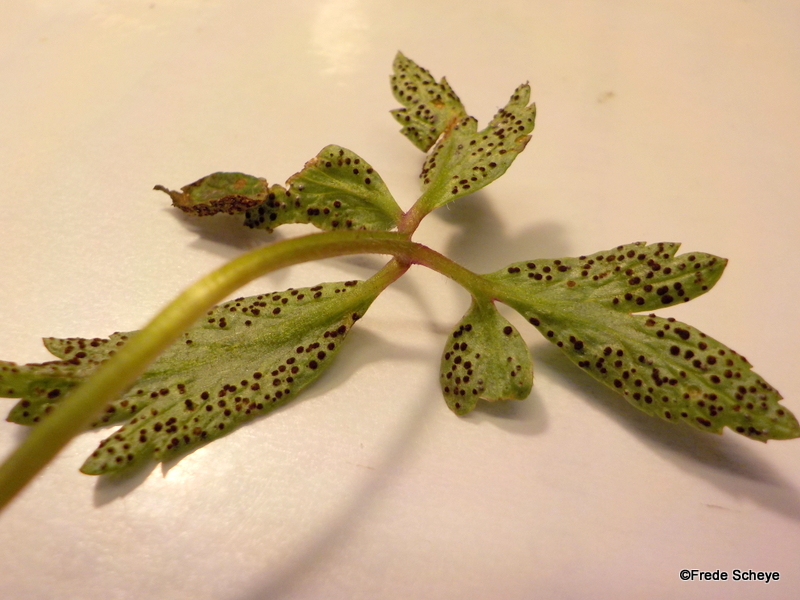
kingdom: Fungi
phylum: Basidiomycota
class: Pucciniomycetes
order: Pucciniales
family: Tranzscheliaceae
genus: Tranzschelia
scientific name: Tranzschelia anemones
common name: anemone-knæksporerust
